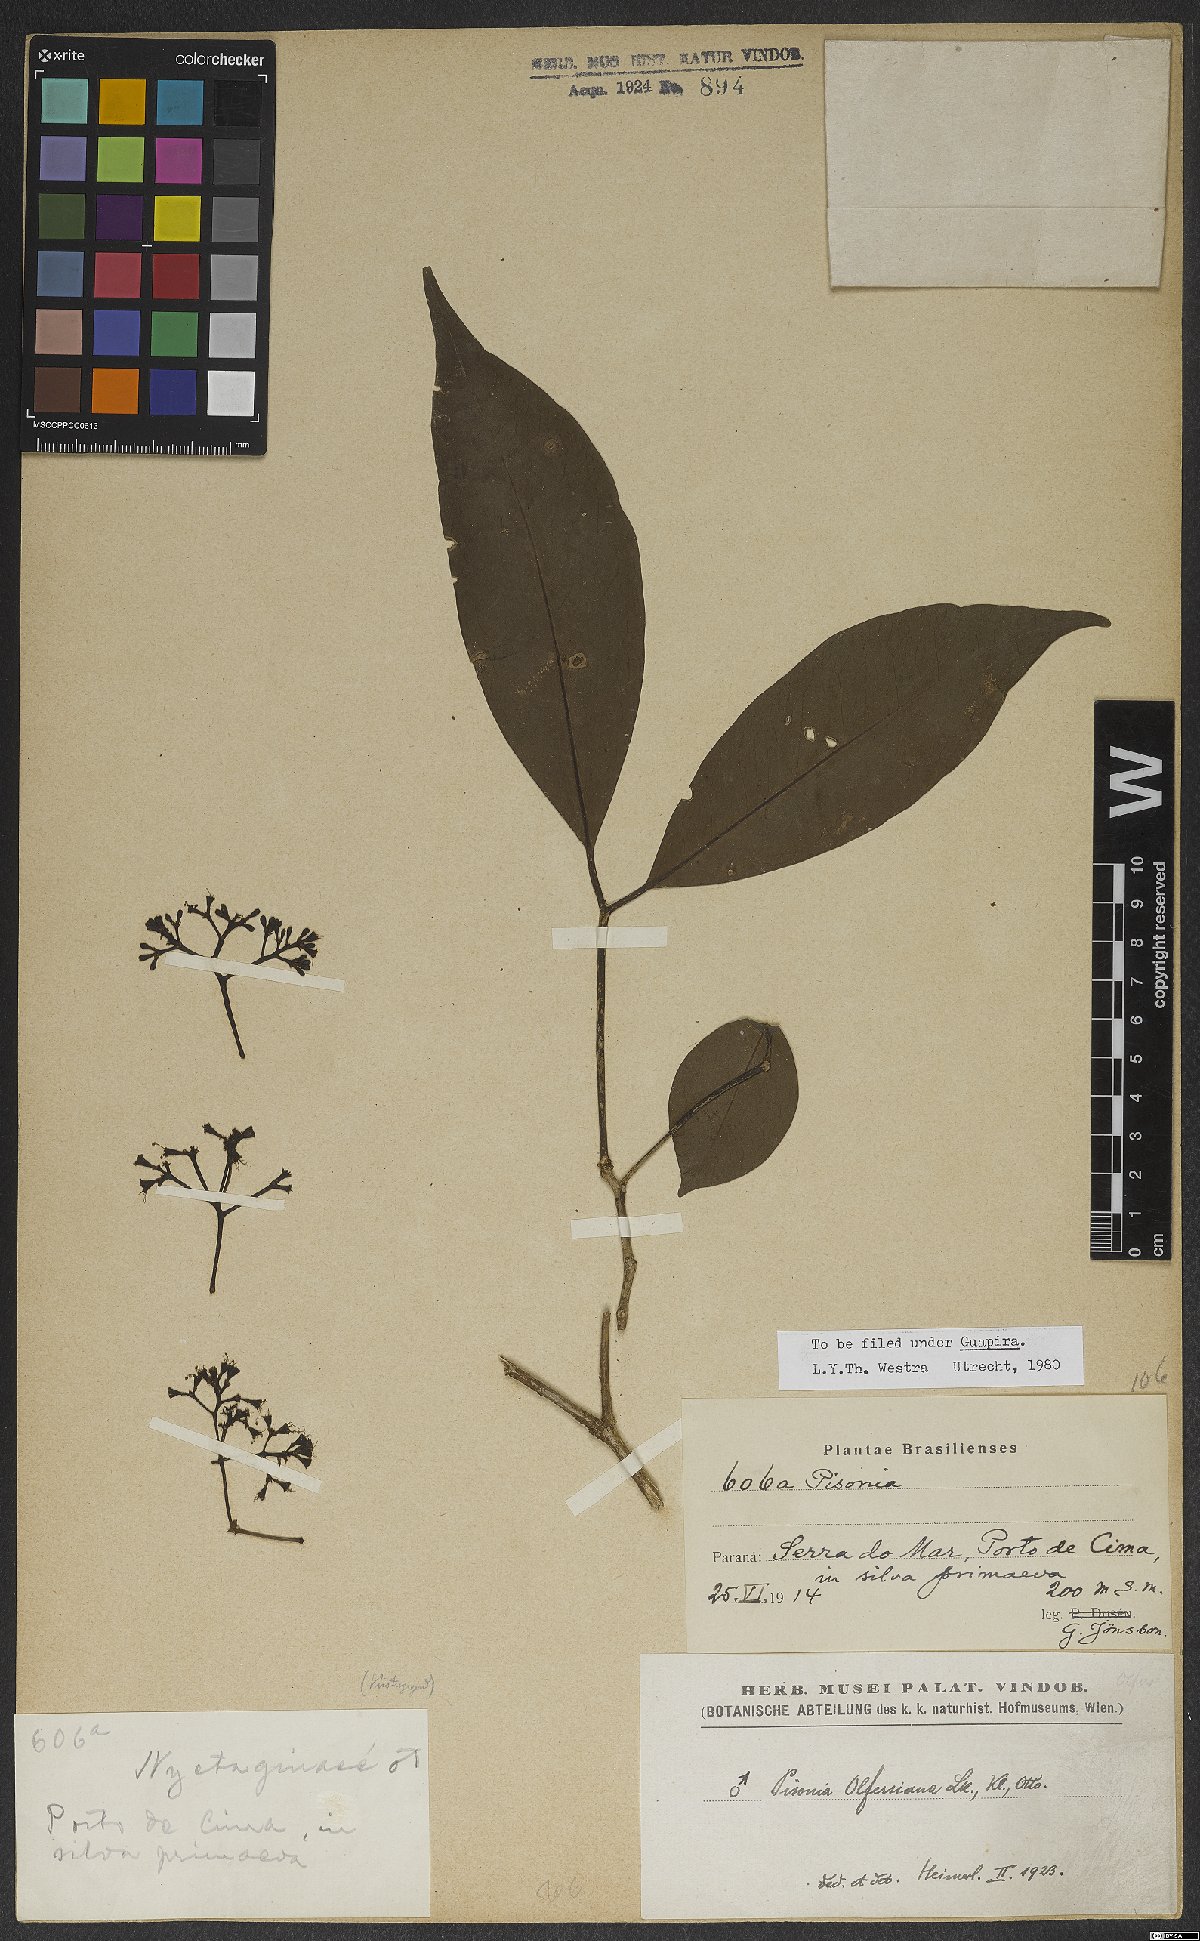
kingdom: Plantae
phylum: Tracheophyta
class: Magnoliopsida
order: Caryophyllales
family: Nyctaginaceae
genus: Guapira
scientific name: Guapira opposita
